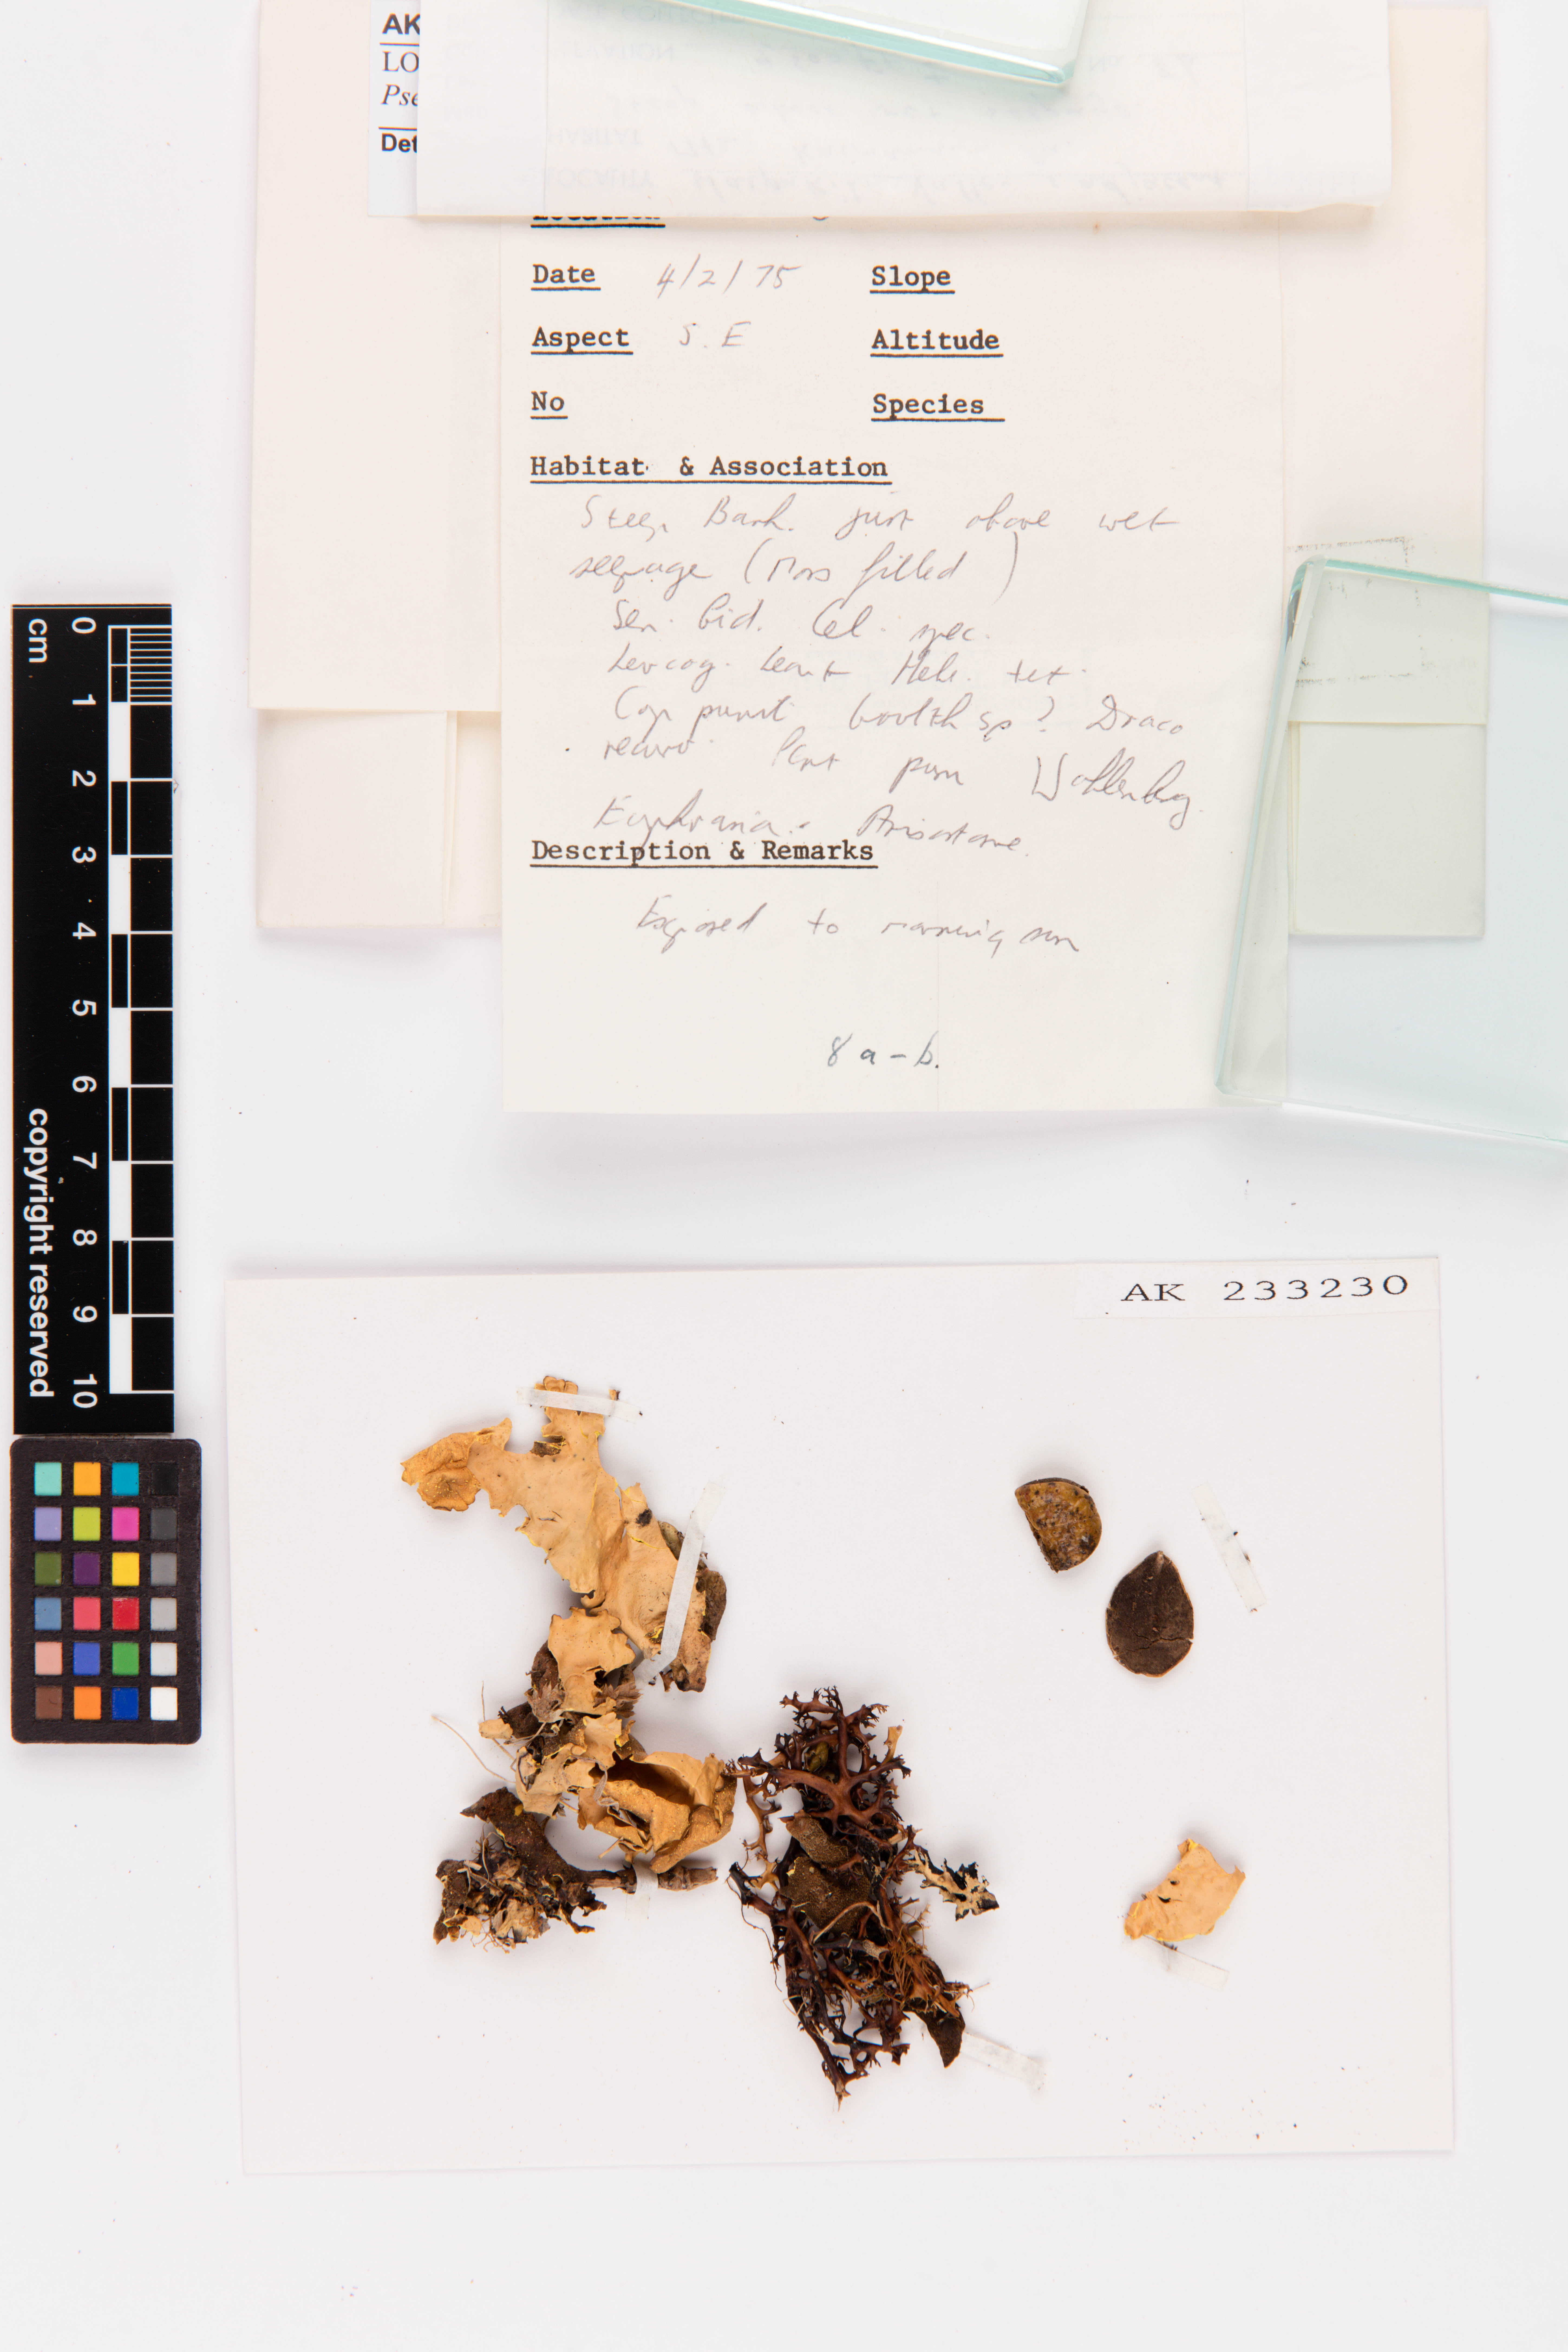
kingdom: Fungi
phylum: Ascomycota
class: Lecanoromycetes
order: Peltigerales
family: Lobariaceae
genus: Pseudocyphellaria
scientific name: Pseudocyphellaria aurata
